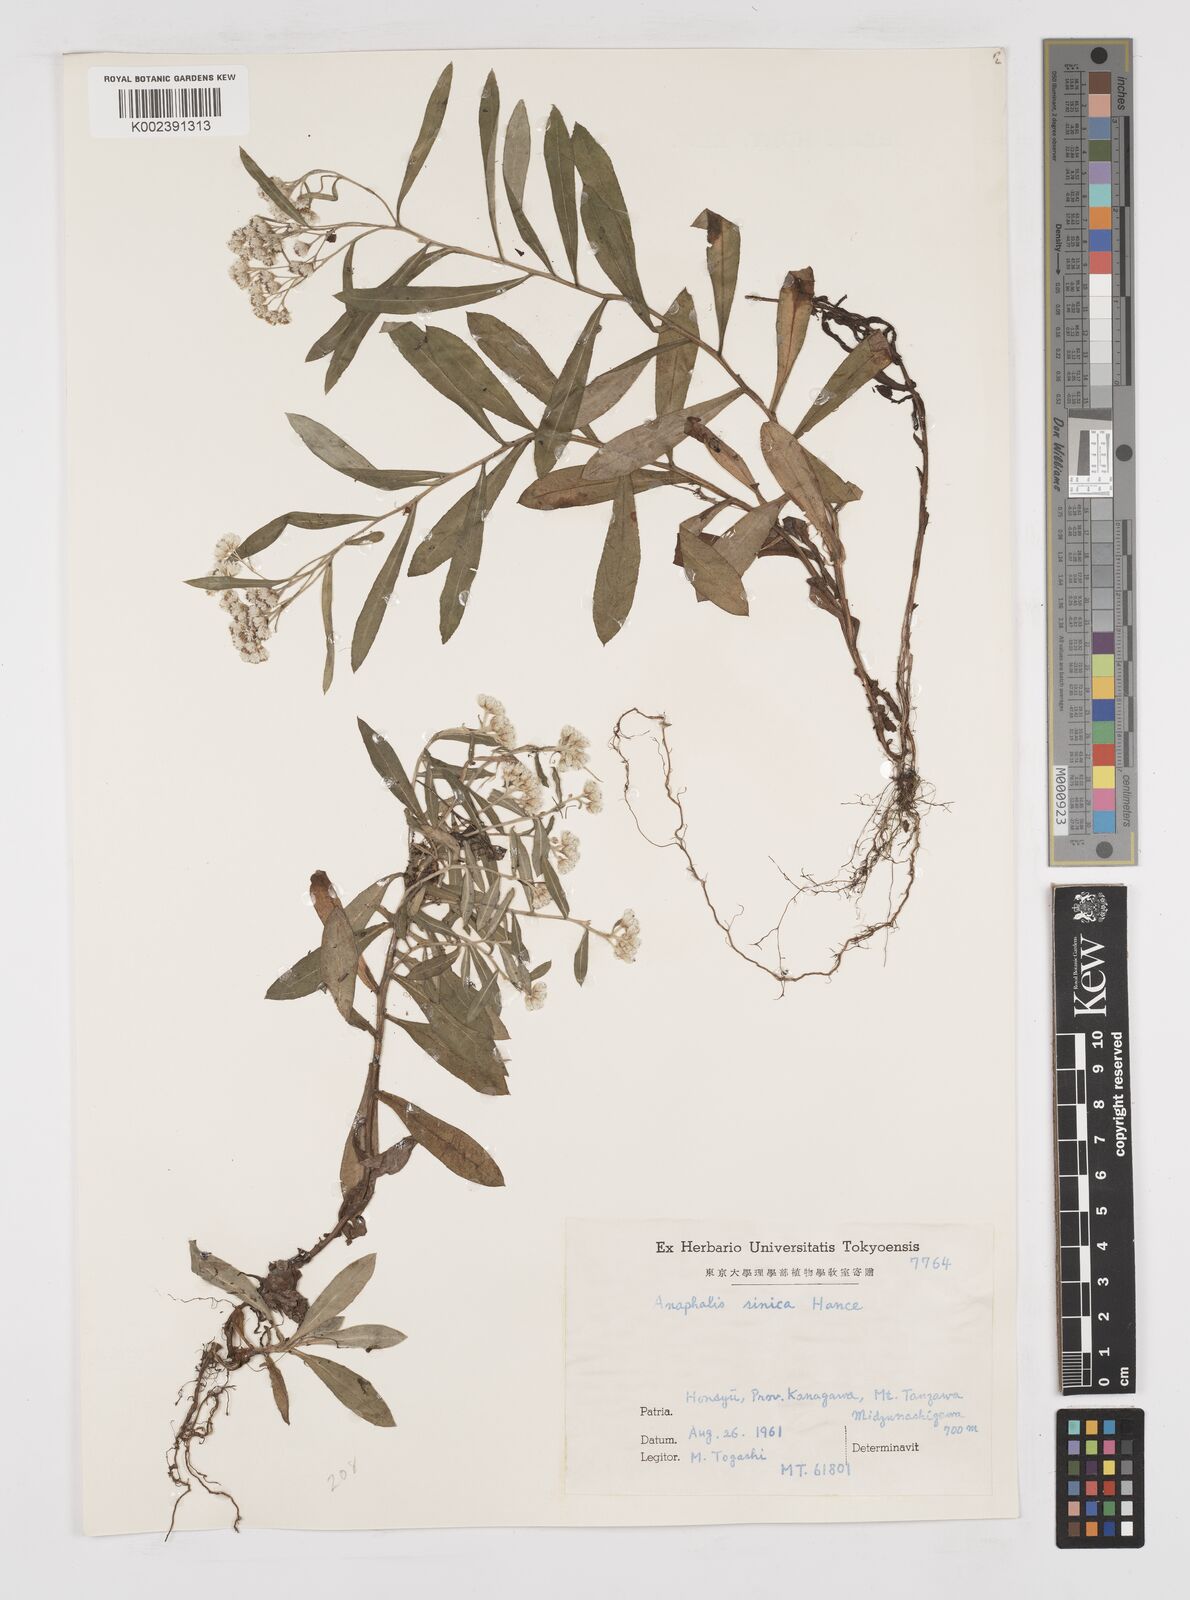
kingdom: Plantae
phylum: Tracheophyta
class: Magnoliopsida
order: Asterales
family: Asteraceae
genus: Anaphalis
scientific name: Anaphalis sinica
